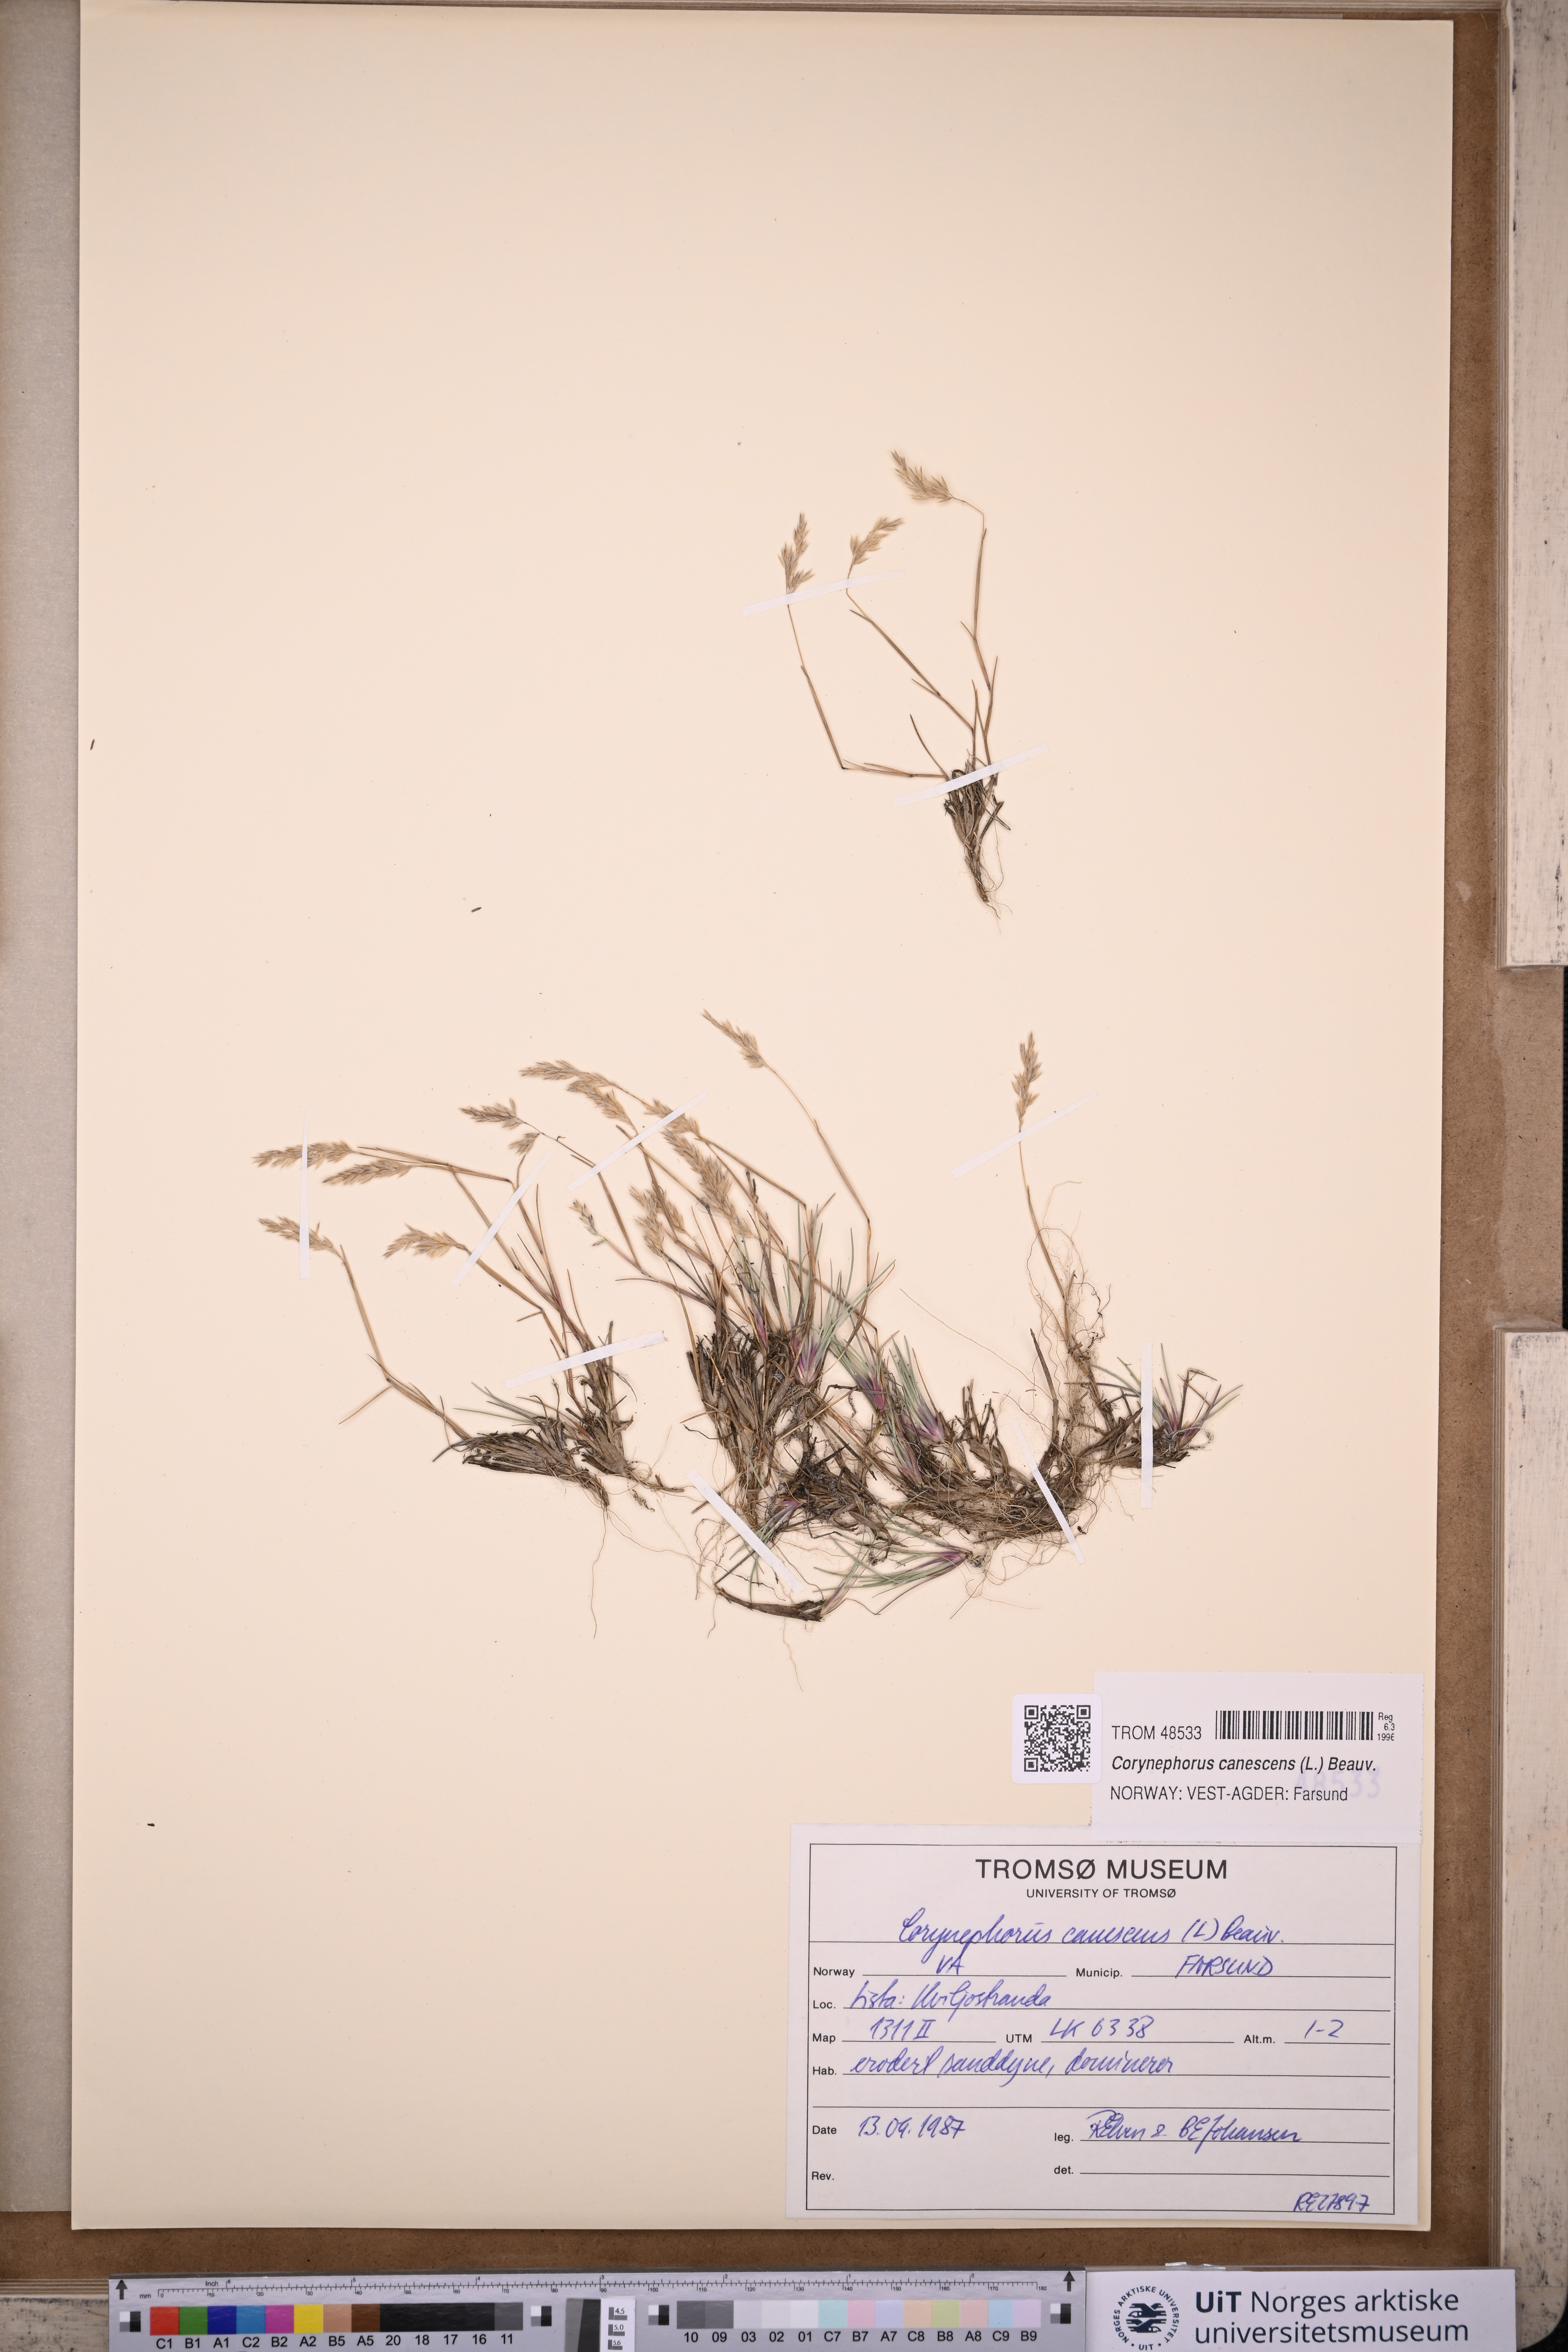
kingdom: Plantae
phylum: Tracheophyta
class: Liliopsida
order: Poales
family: Poaceae
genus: Corynephorus
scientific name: Corynephorus canescens
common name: Grey hair-grass
